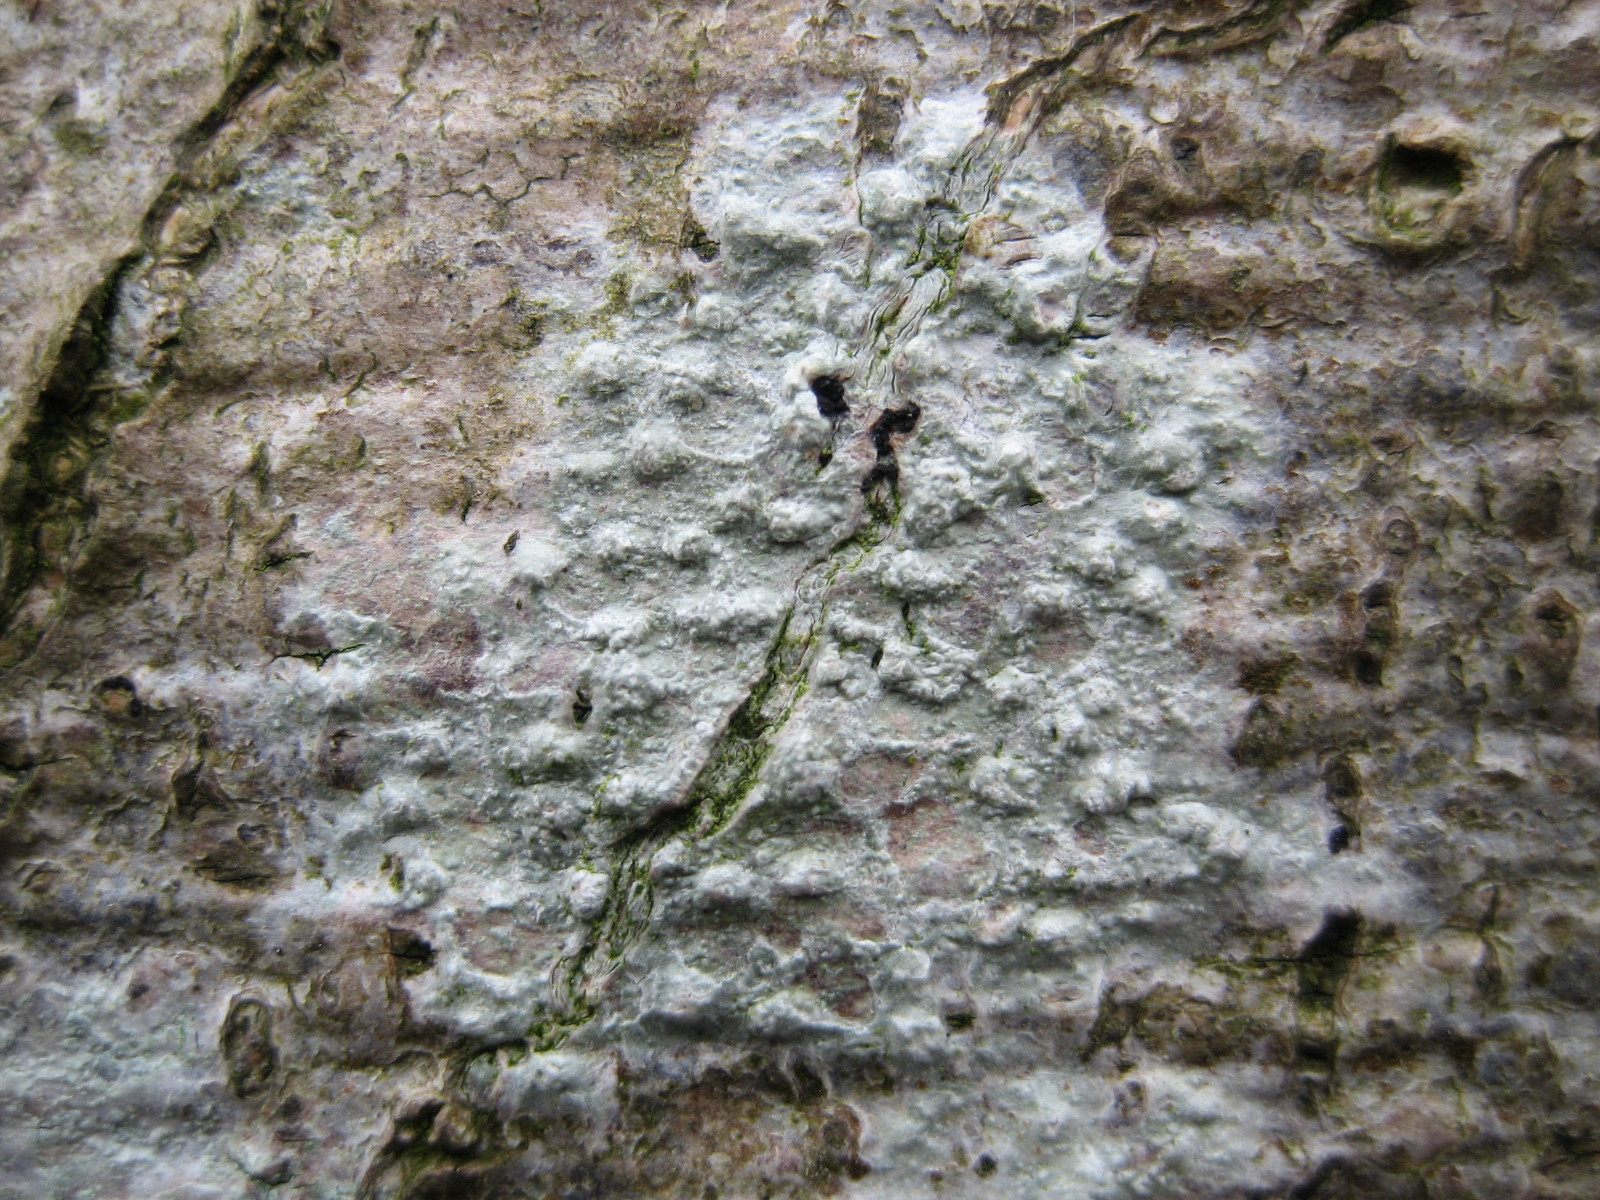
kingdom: Fungi
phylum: Ascomycota
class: Lecanoromycetes
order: Pertusariales
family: Pertusariaceae
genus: Pertusaria
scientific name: Pertusaria leioplaca
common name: tynd prikvortelav
